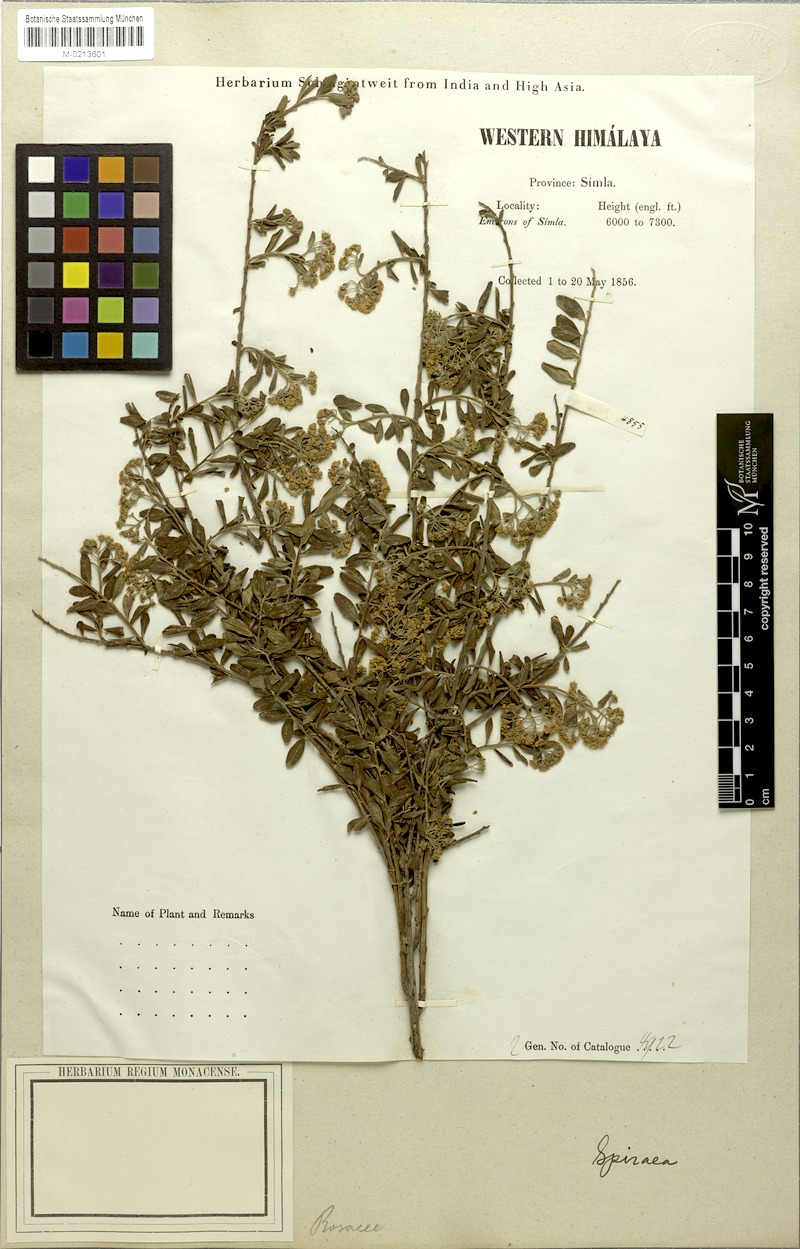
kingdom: Plantae
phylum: Tracheophyta
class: Magnoliopsida
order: Rosales
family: Rosaceae
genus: Spiraea
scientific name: Spiraea canescens
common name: Himalayan spiraea
